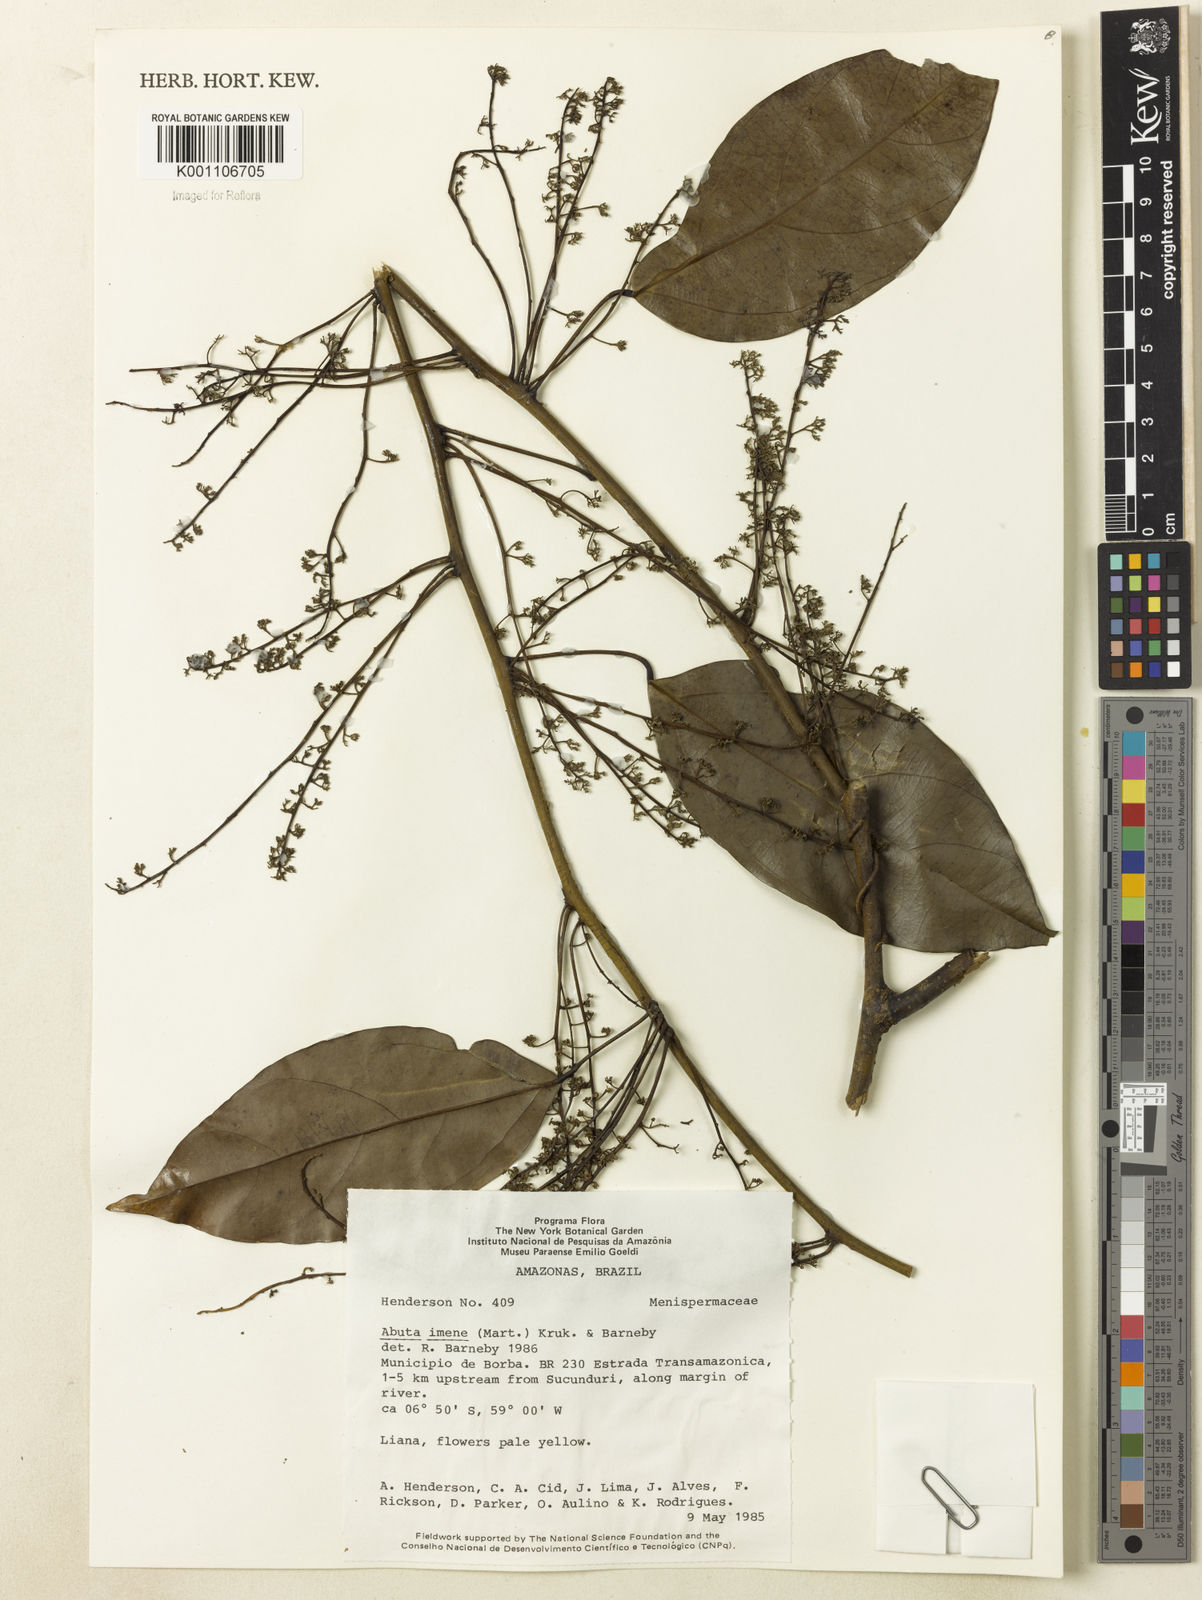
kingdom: Plantae
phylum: Tracheophyta
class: Magnoliopsida
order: Ranunculales
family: Menispermaceae
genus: Abuta
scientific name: Abuta imene
